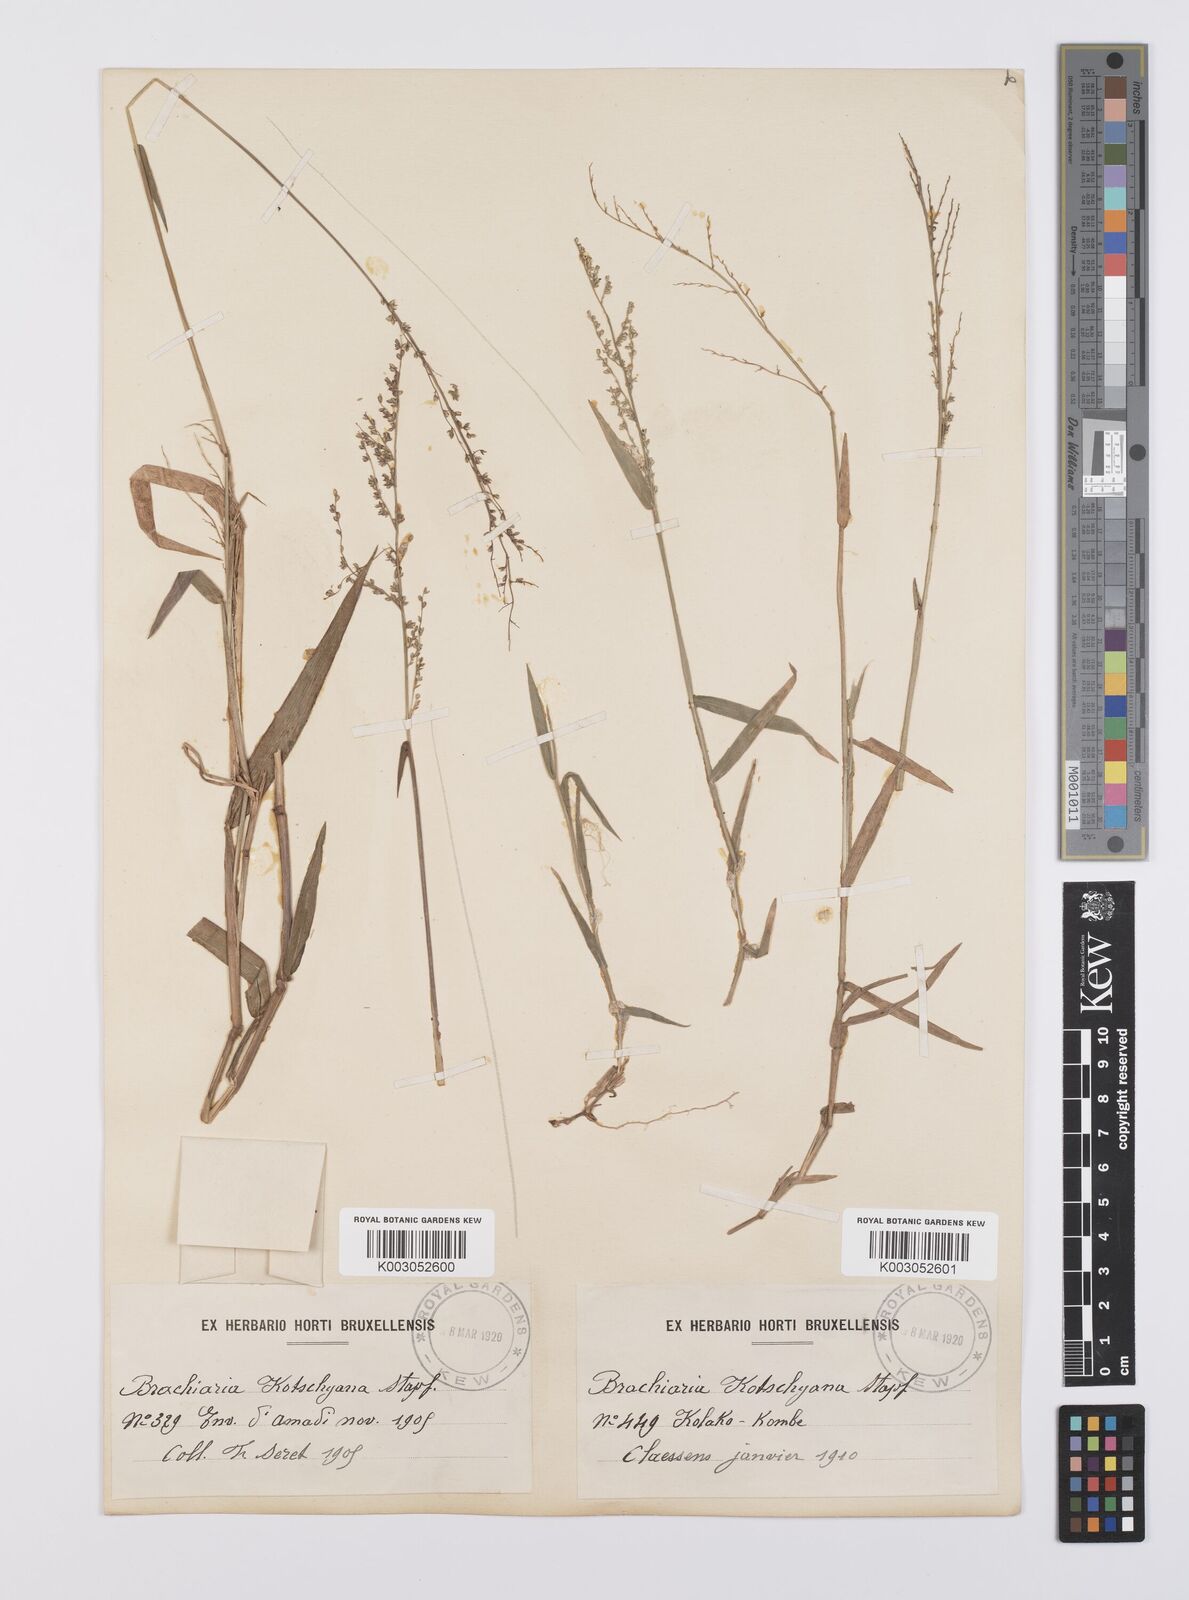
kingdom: Plantae
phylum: Tracheophyta
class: Liliopsida
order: Poales
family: Poaceae
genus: Urochloa
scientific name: Urochloa comata
